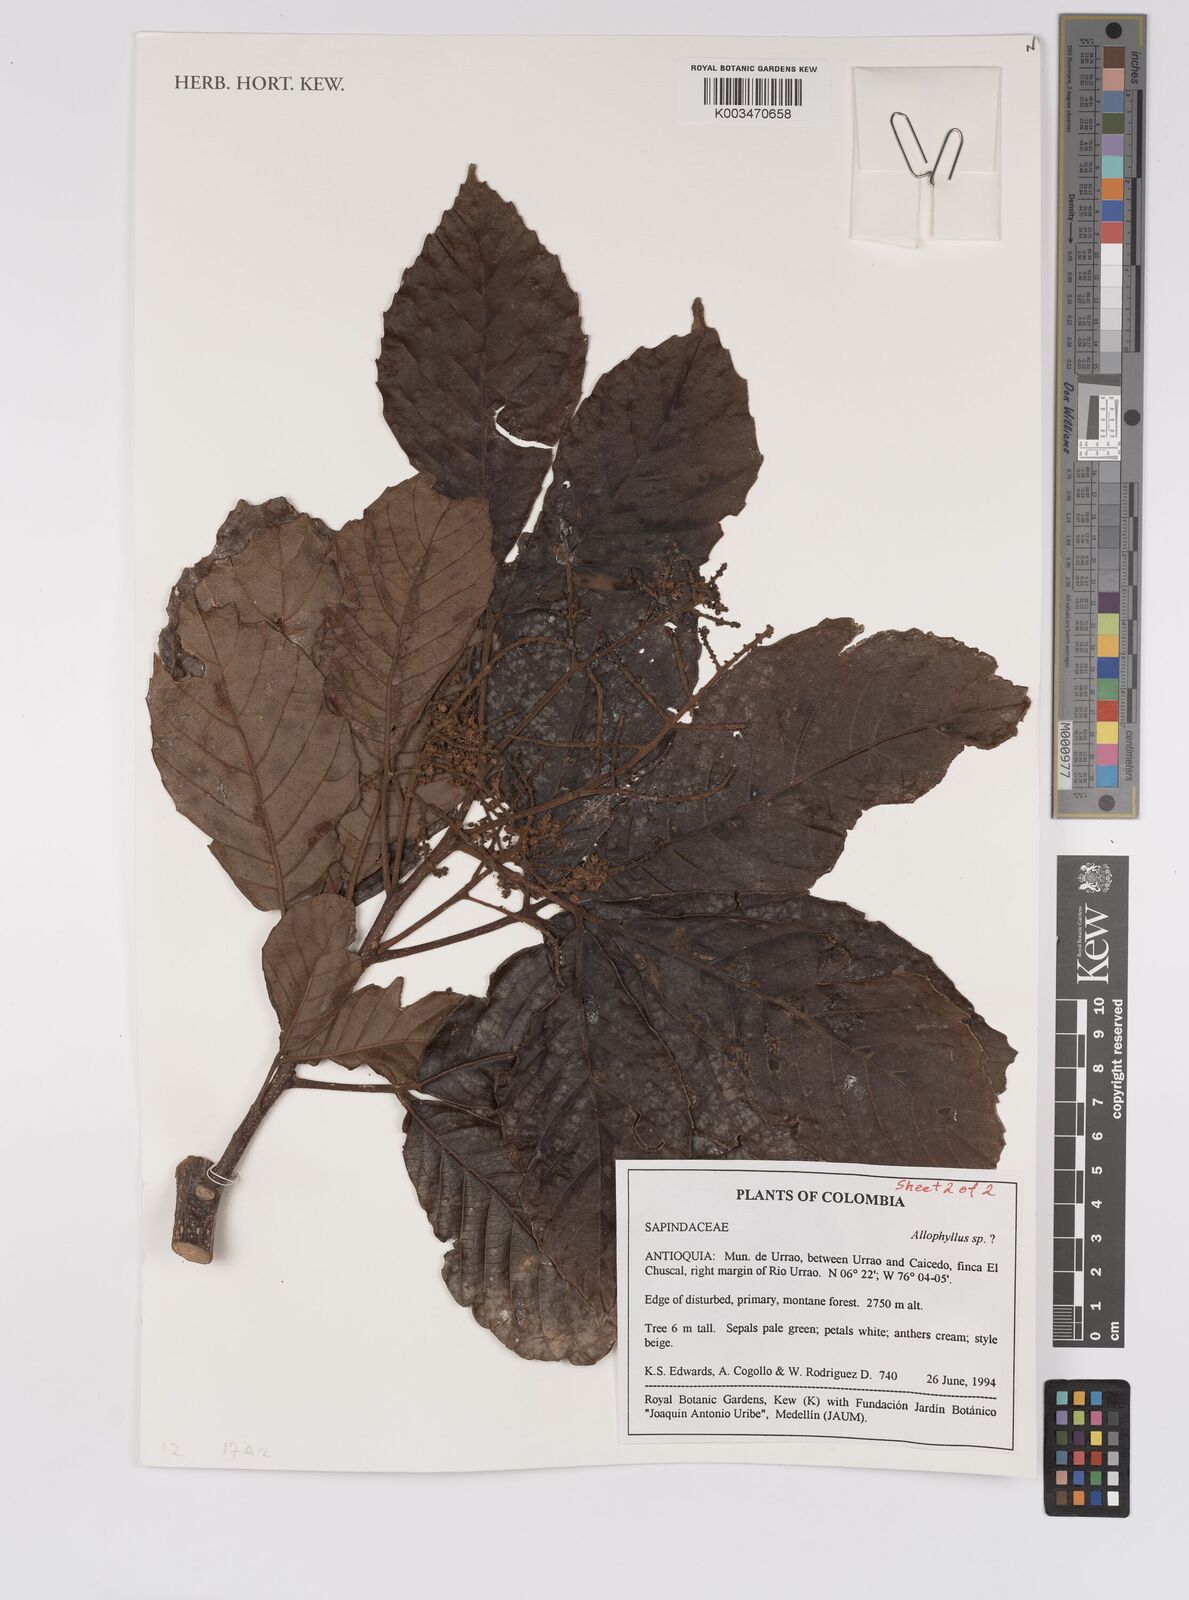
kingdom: Plantae
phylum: Tracheophyta
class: Magnoliopsida
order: Sapindales
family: Sapindaceae
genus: Allophylus
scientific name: Allophylus
